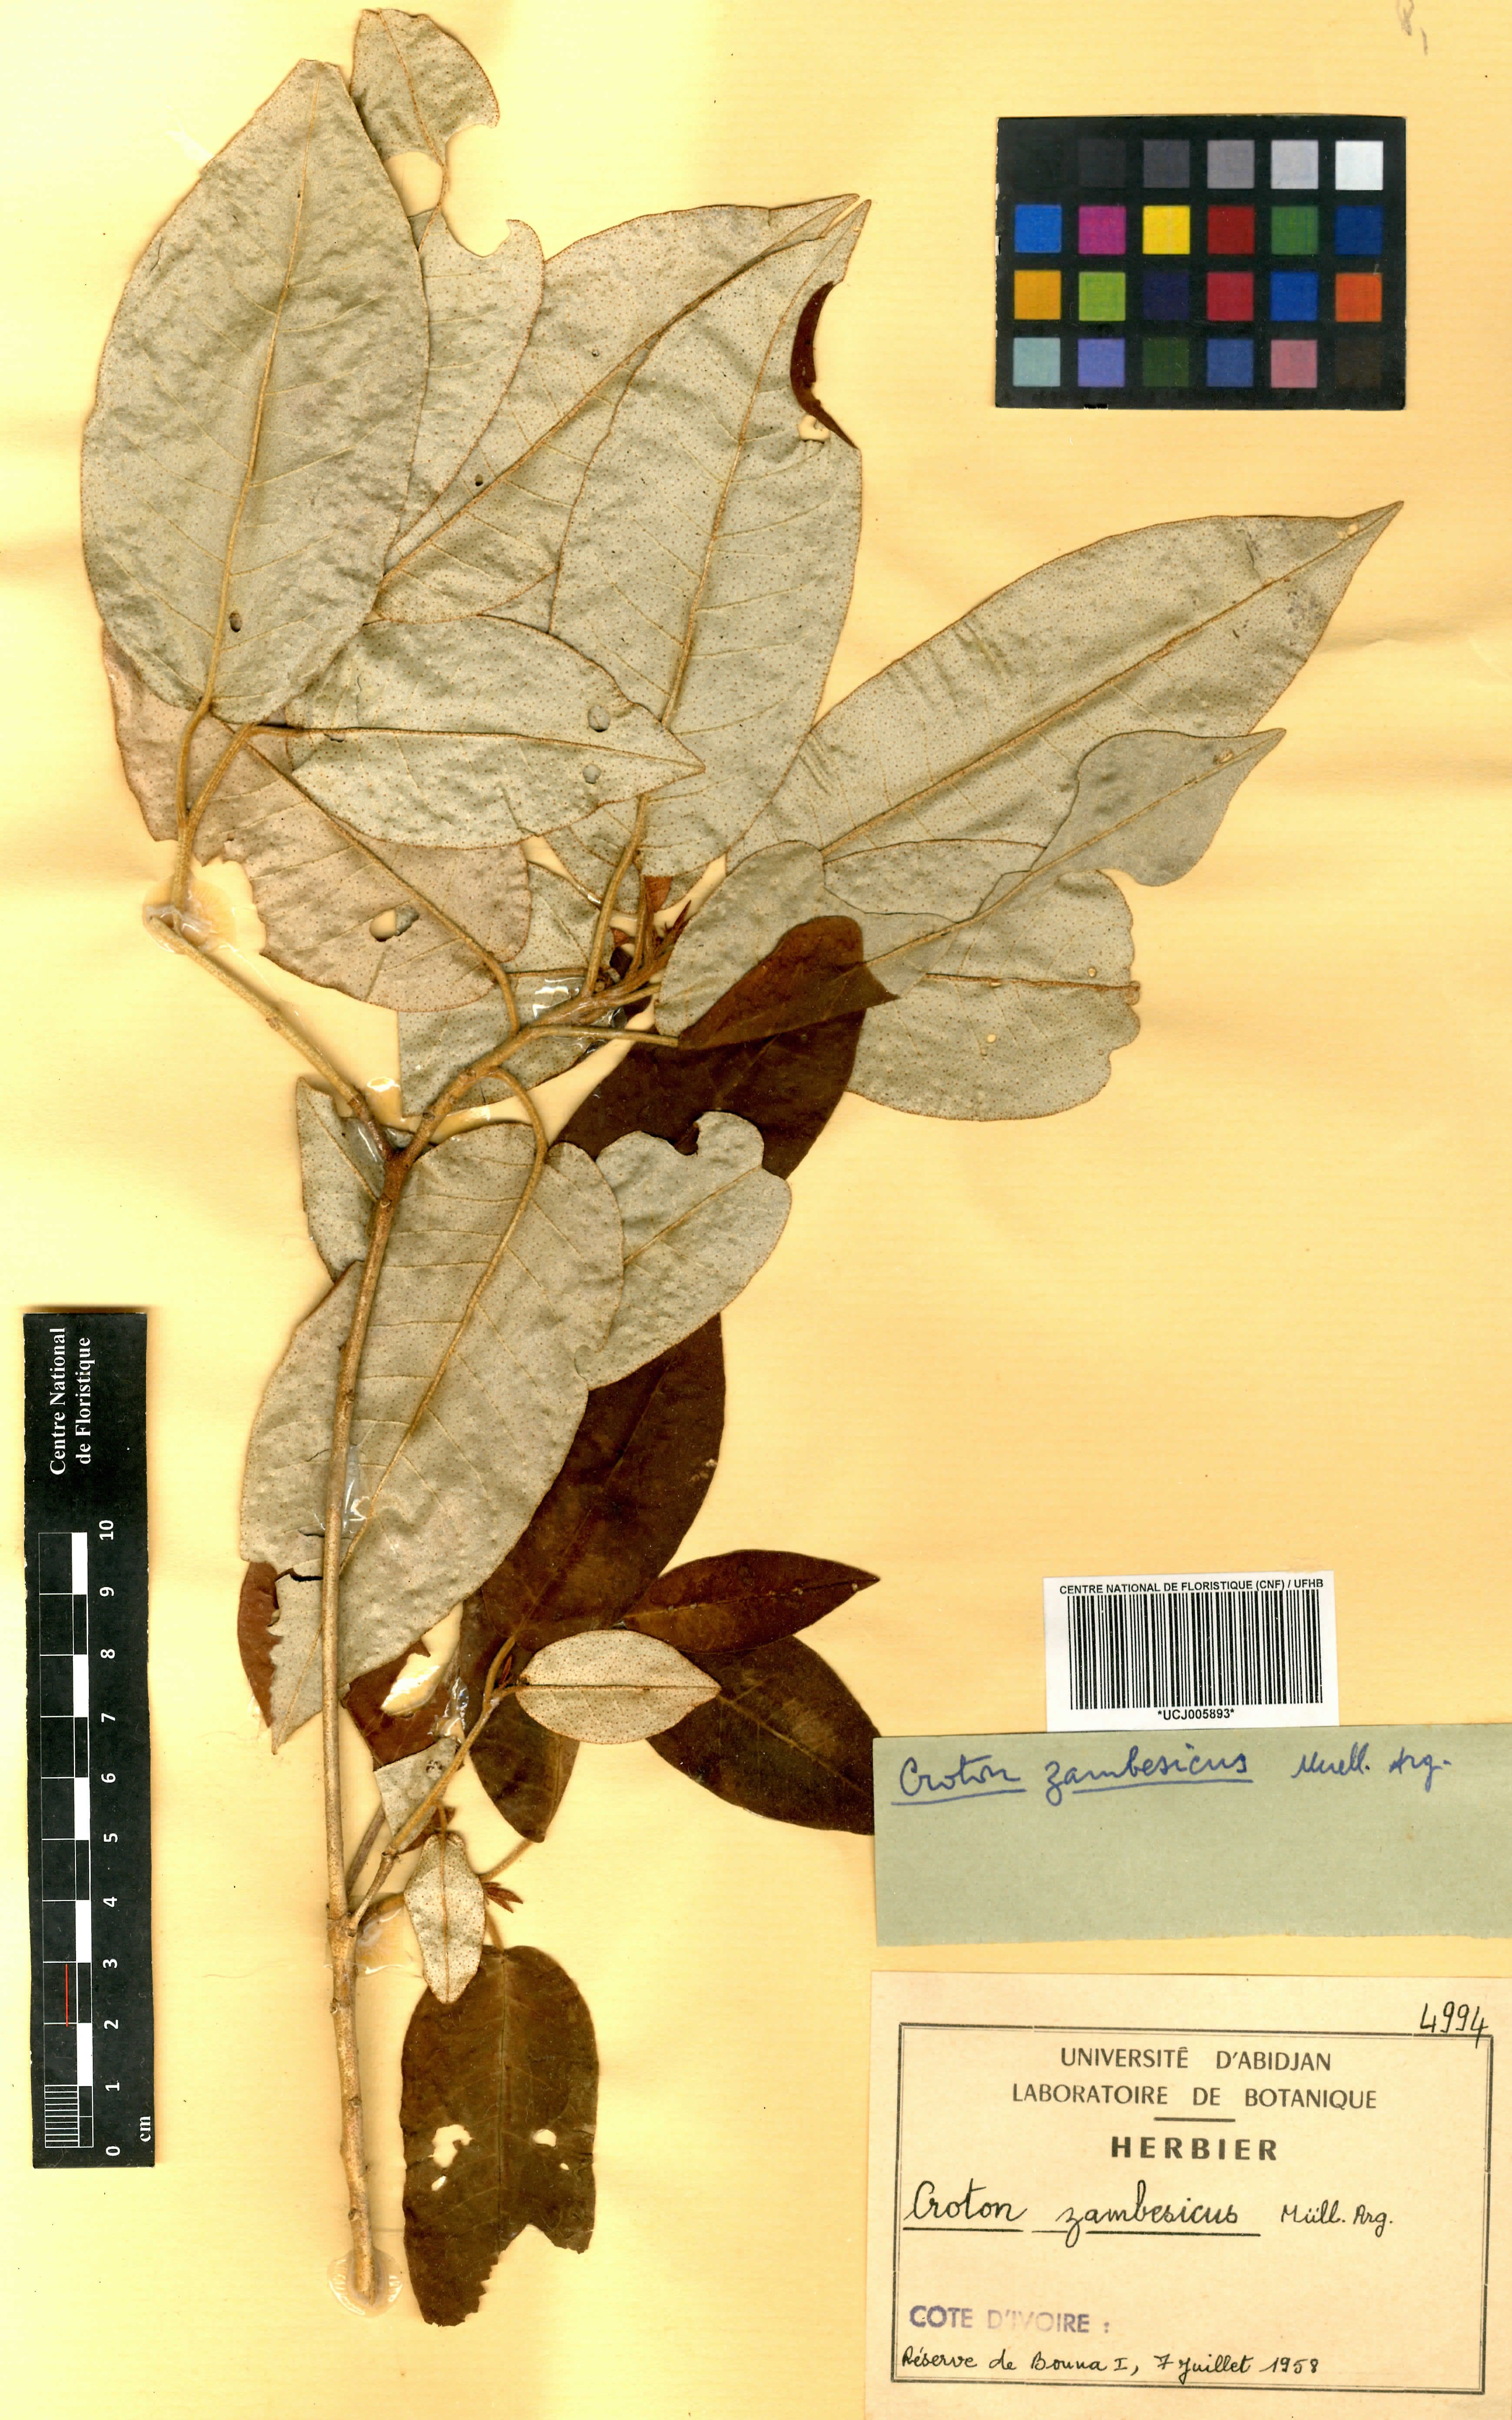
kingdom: Plantae
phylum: Tracheophyta
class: Magnoliopsida
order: Malpighiales
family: Euphorbiaceae
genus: Croton
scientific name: Croton gratissimus
